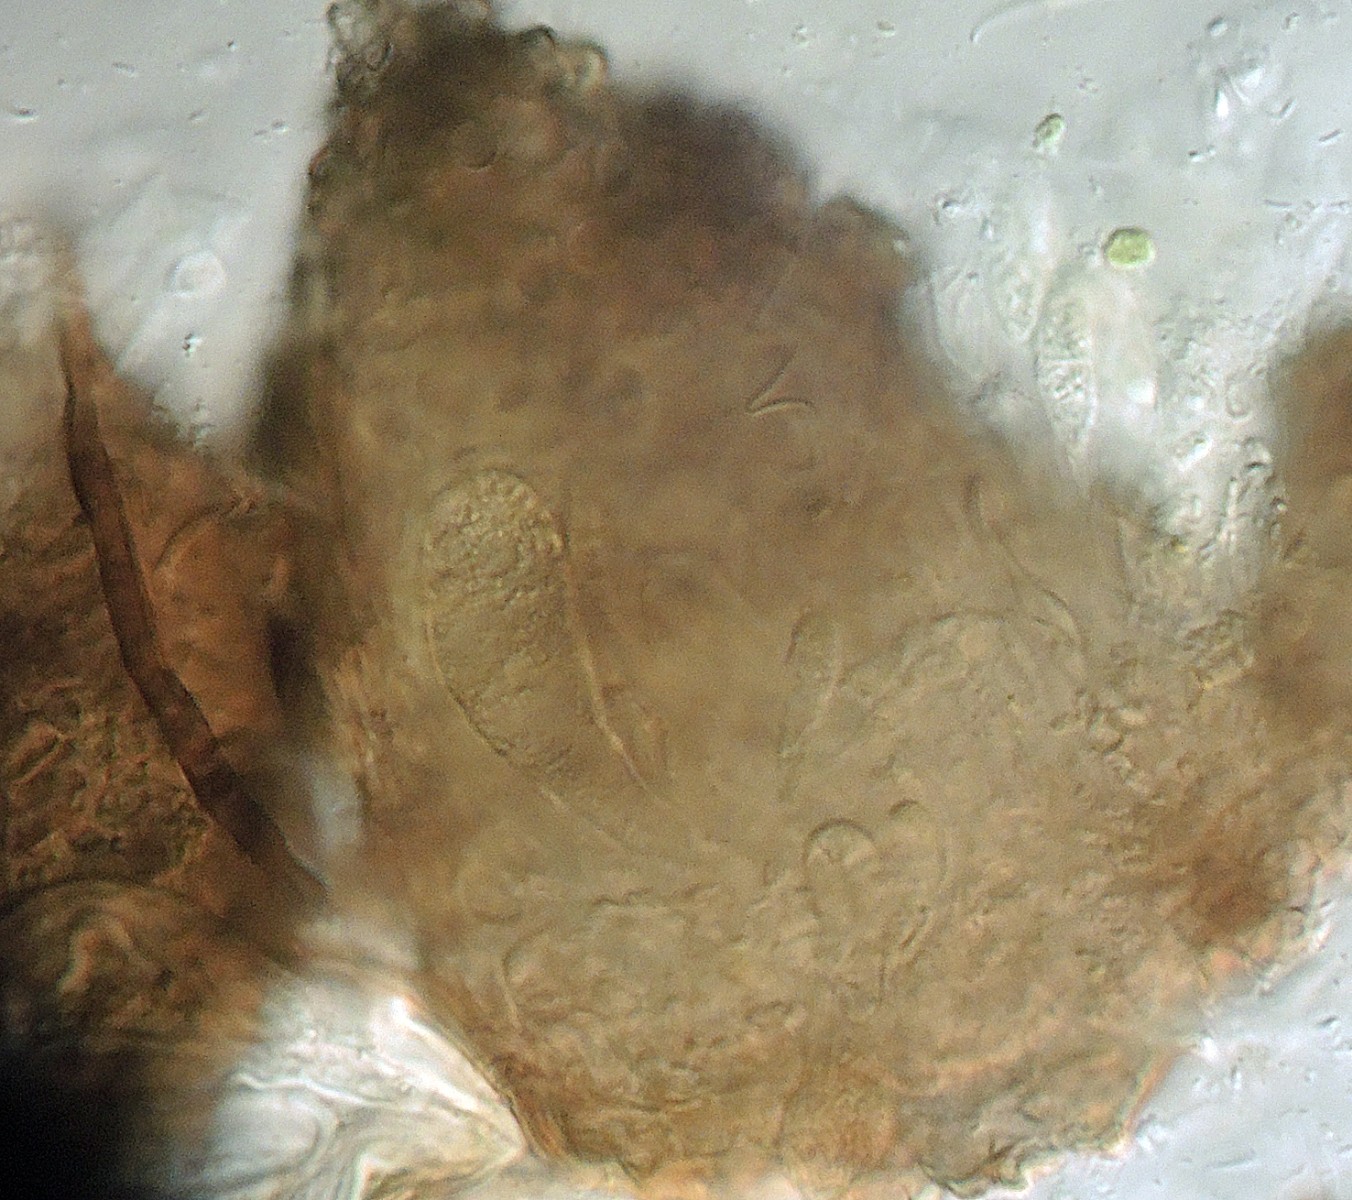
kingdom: Fungi
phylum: Ascomycota
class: Dothideomycetes
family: Pseudoperisporiaceae
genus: Epibryon
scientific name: Epibryon
